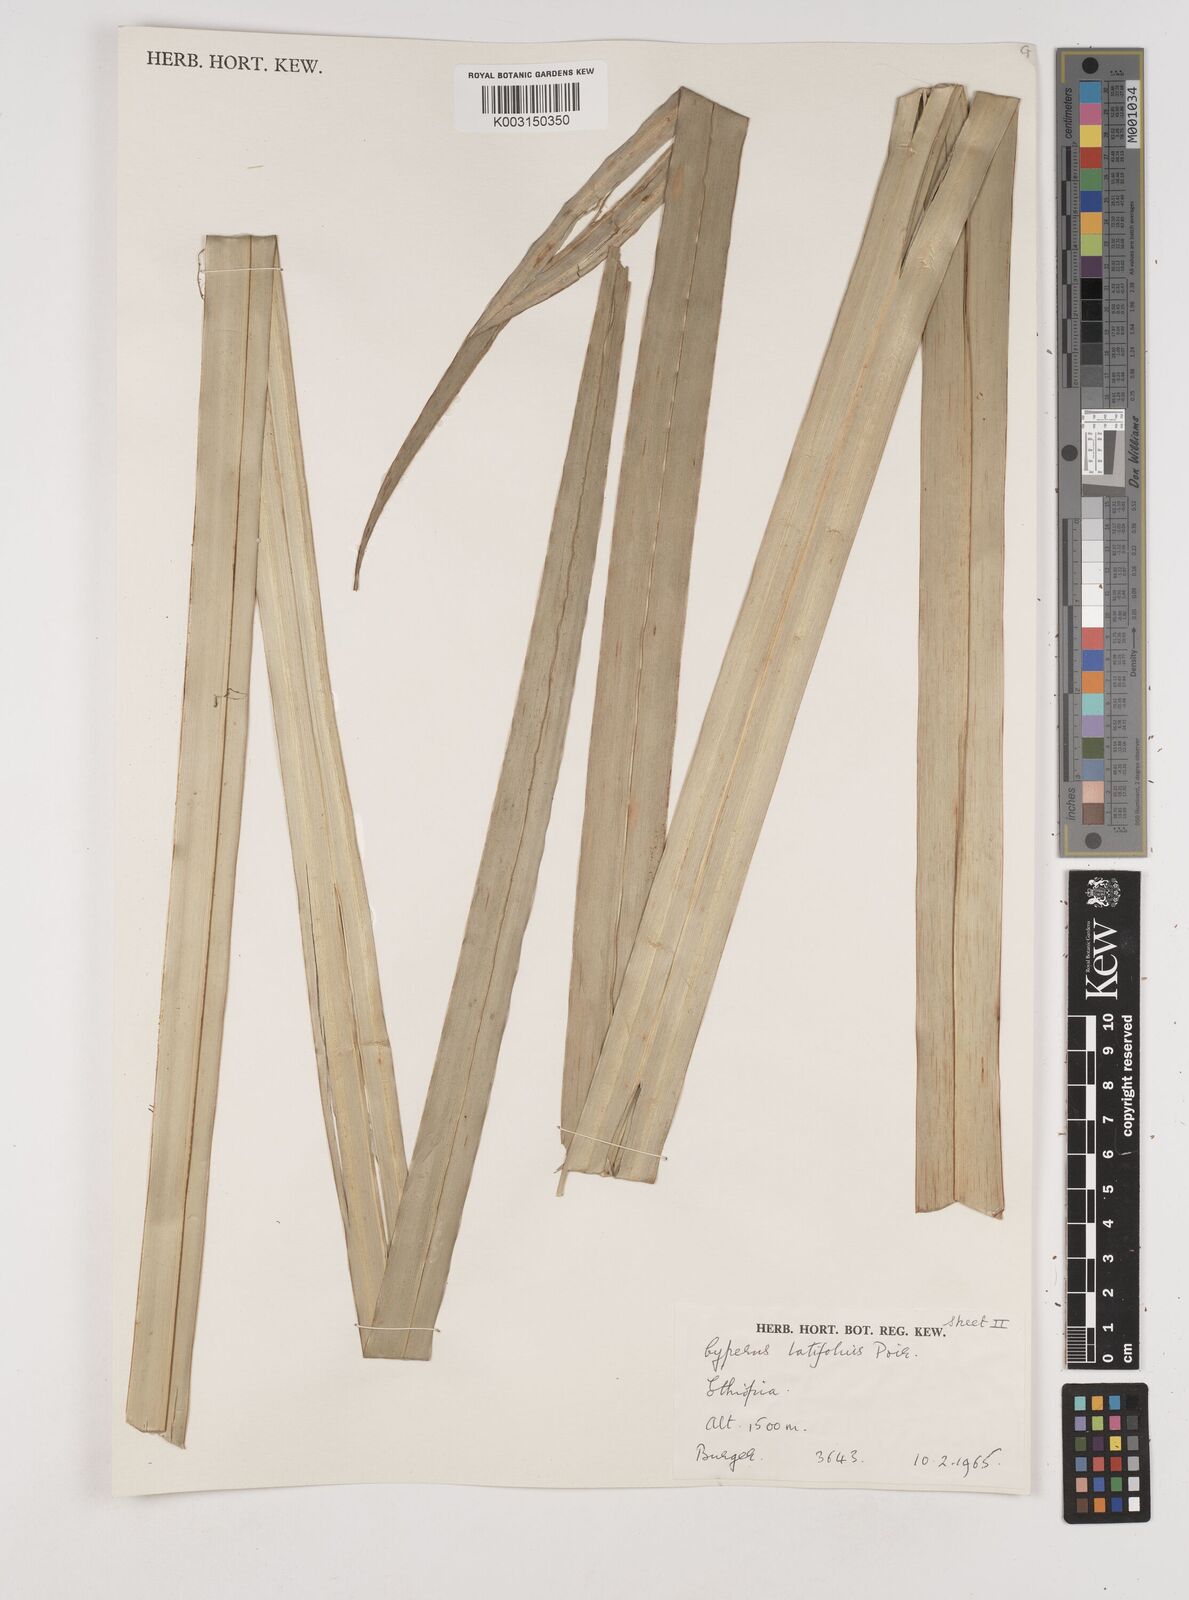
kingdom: Plantae
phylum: Tracheophyta
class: Liliopsida
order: Poales
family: Cyperaceae
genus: Cyperus
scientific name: Cyperus latifolius
